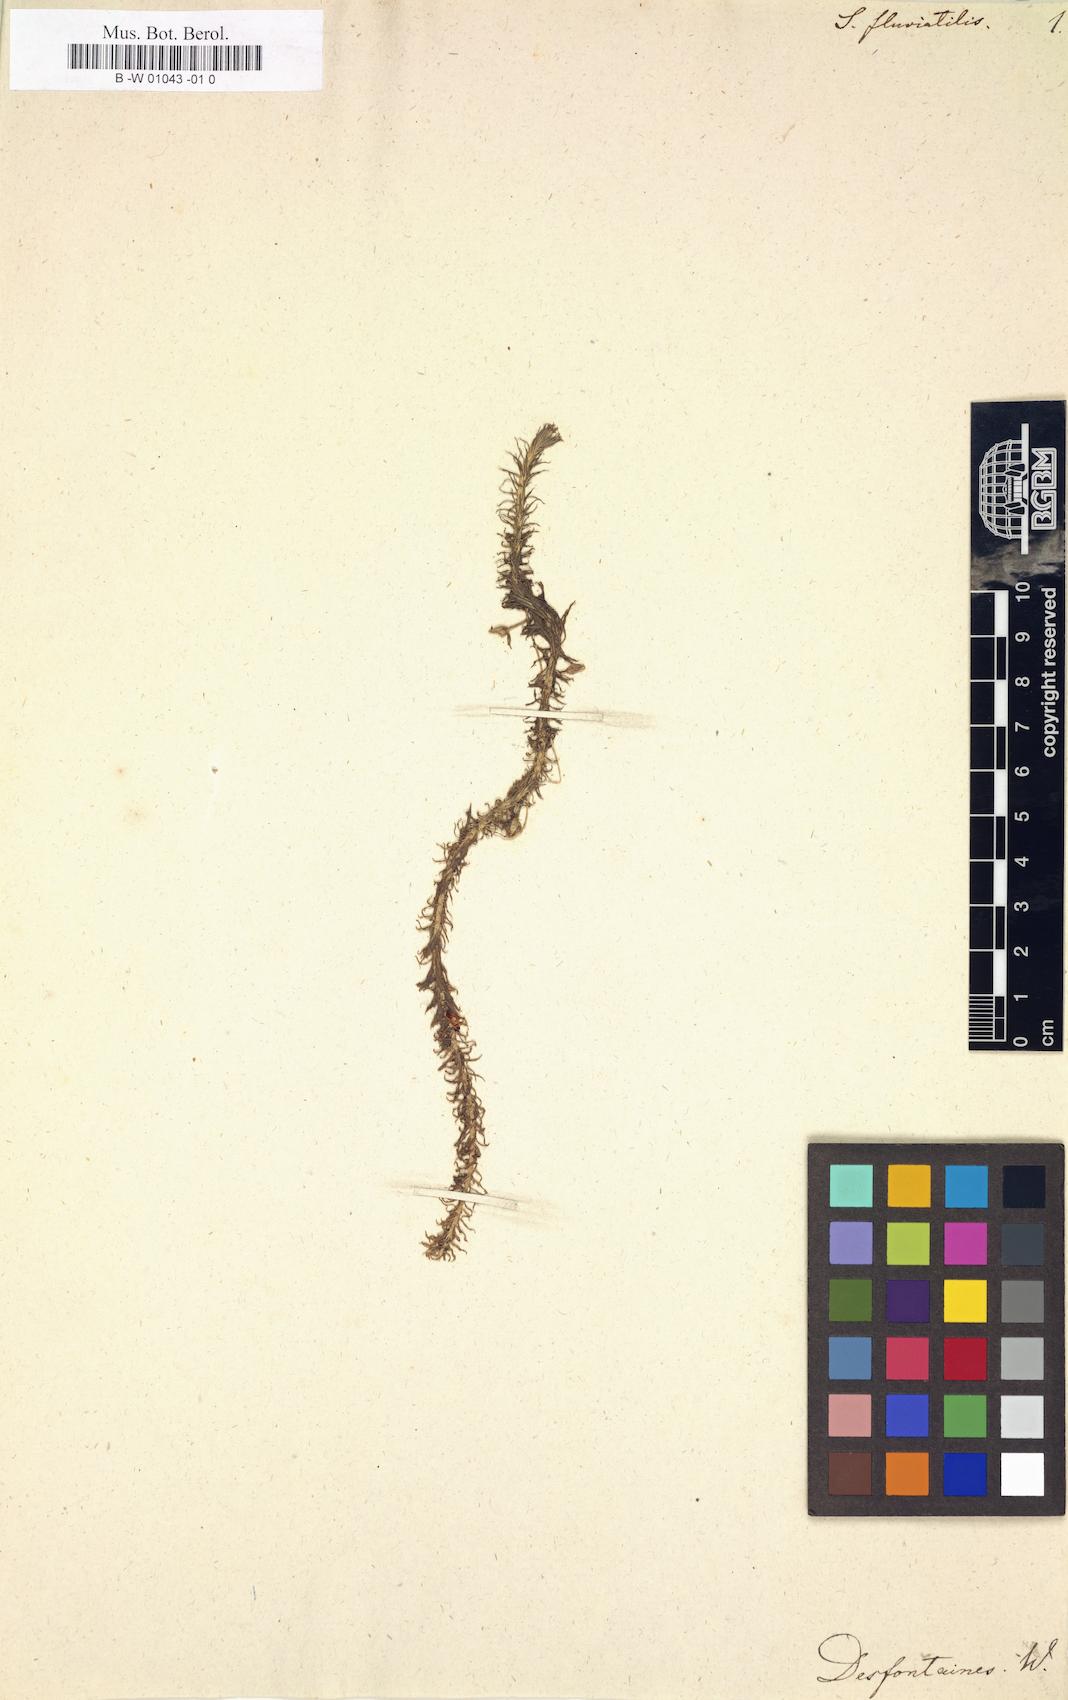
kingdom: Plantae
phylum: Tracheophyta
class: Liliopsida
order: Poales
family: Mayacaceae
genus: Mayaca
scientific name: Mayaca fluviatilis
